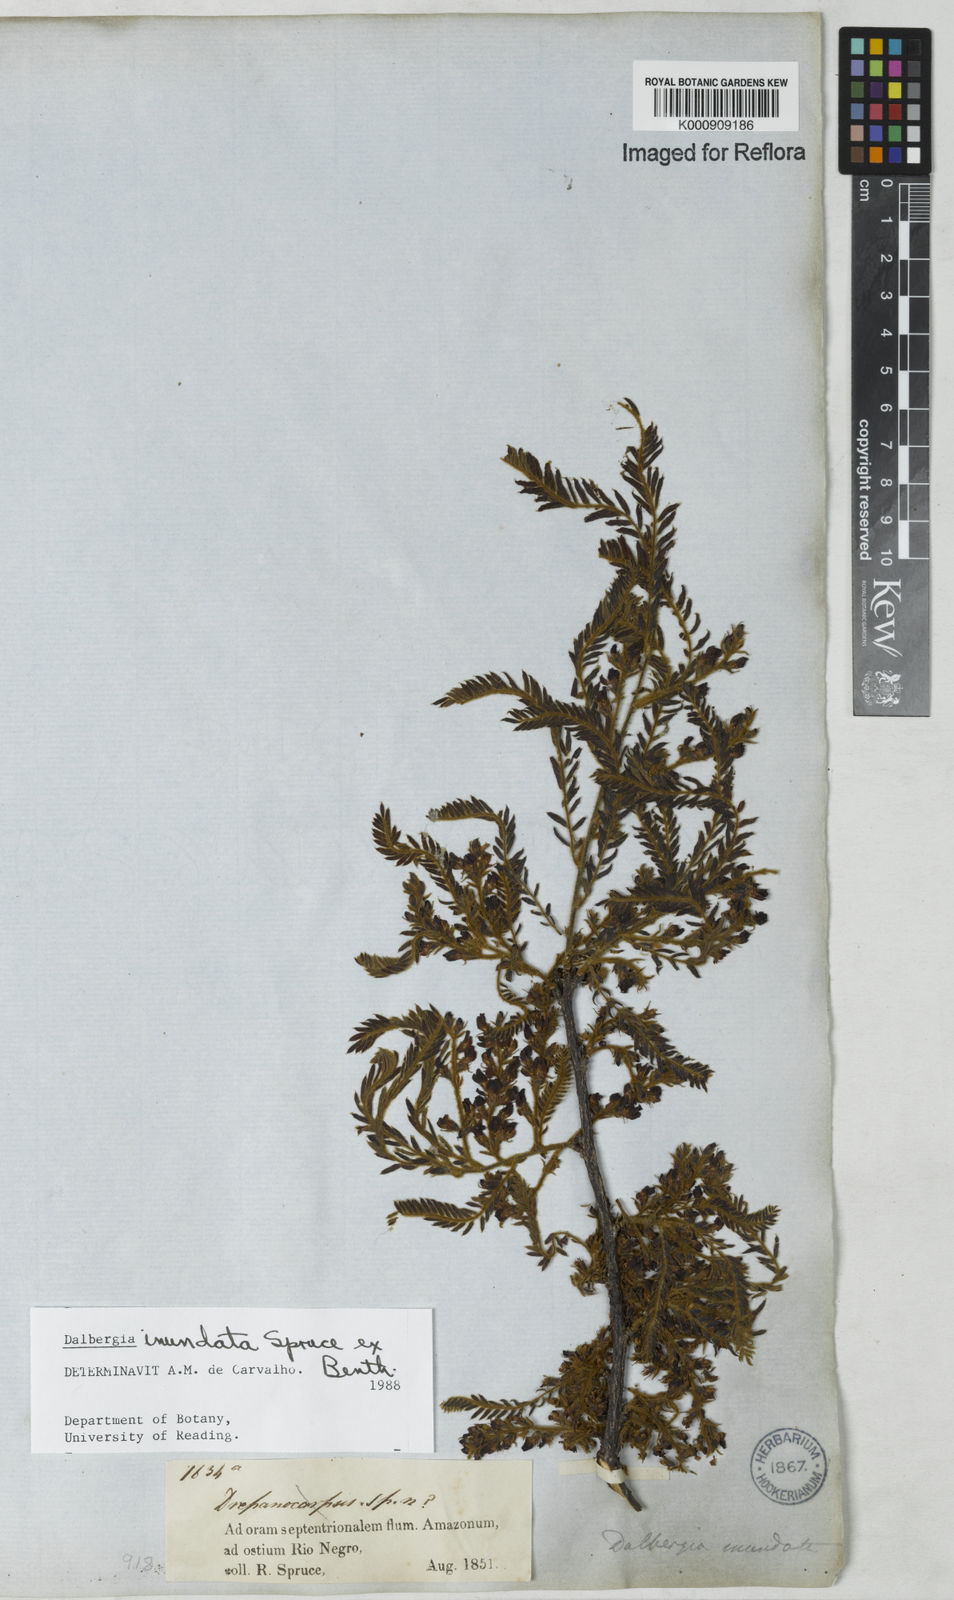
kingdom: Plantae
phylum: Tracheophyta
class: Magnoliopsida
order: Fabales
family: Fabaceae
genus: Dalbergia
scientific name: Dalbergia inundata
